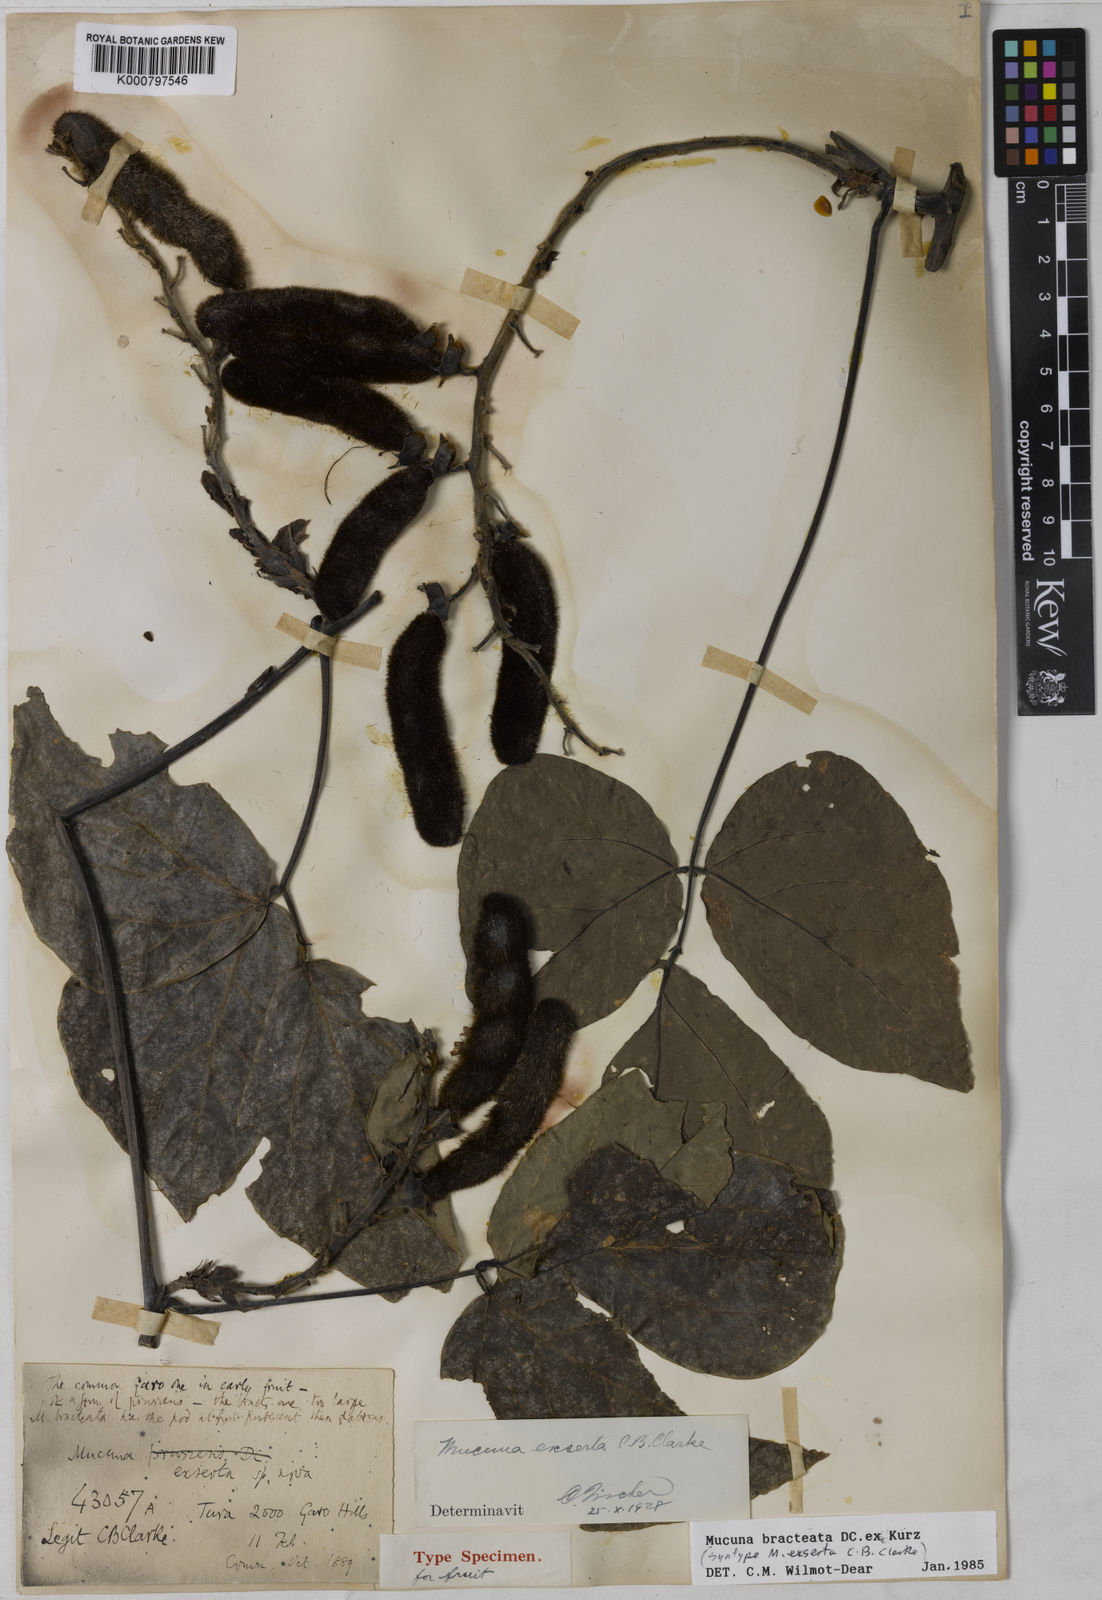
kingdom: Plantae
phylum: Tracheophyta
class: Magnoliopsida
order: Fabales
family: Fabaceae
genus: Mucuna
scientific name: Mucuna bracteata
